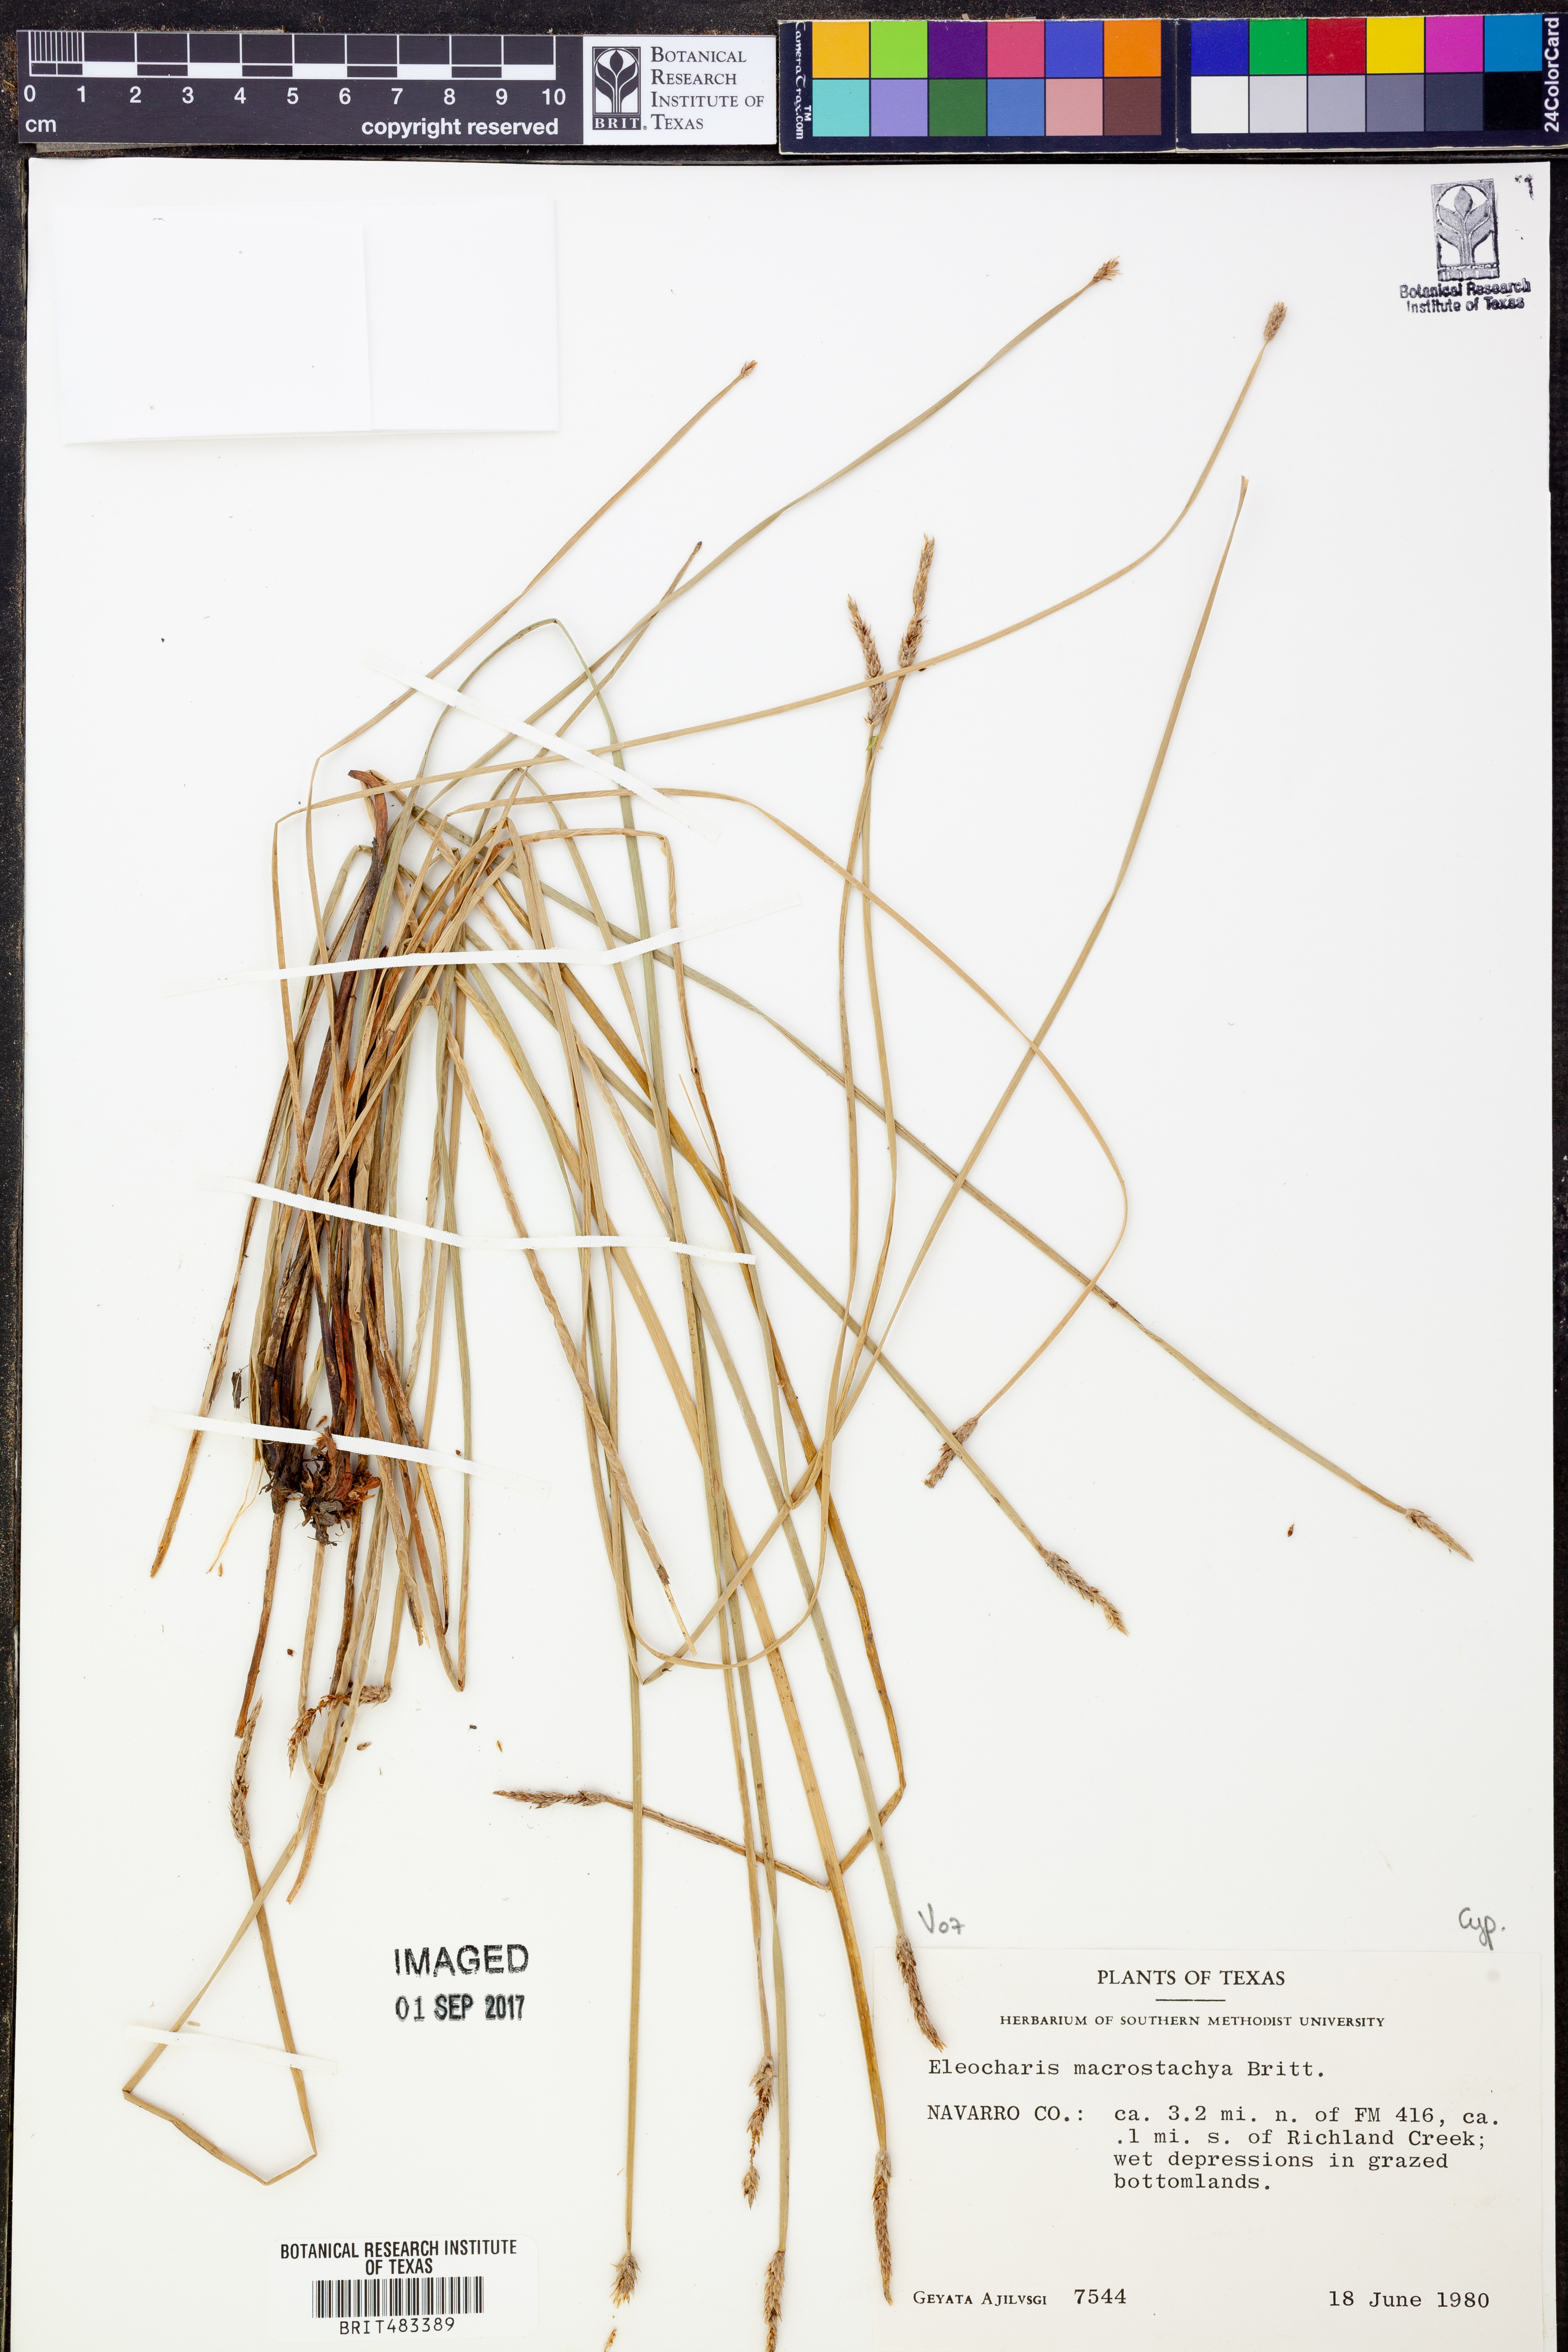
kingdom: Plantae
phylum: Tracheophyta
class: Liliopsida
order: Poales
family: Cyperaceae
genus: Eleocharis
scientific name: Eleocharis macrostachya
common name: Pale spikerush
